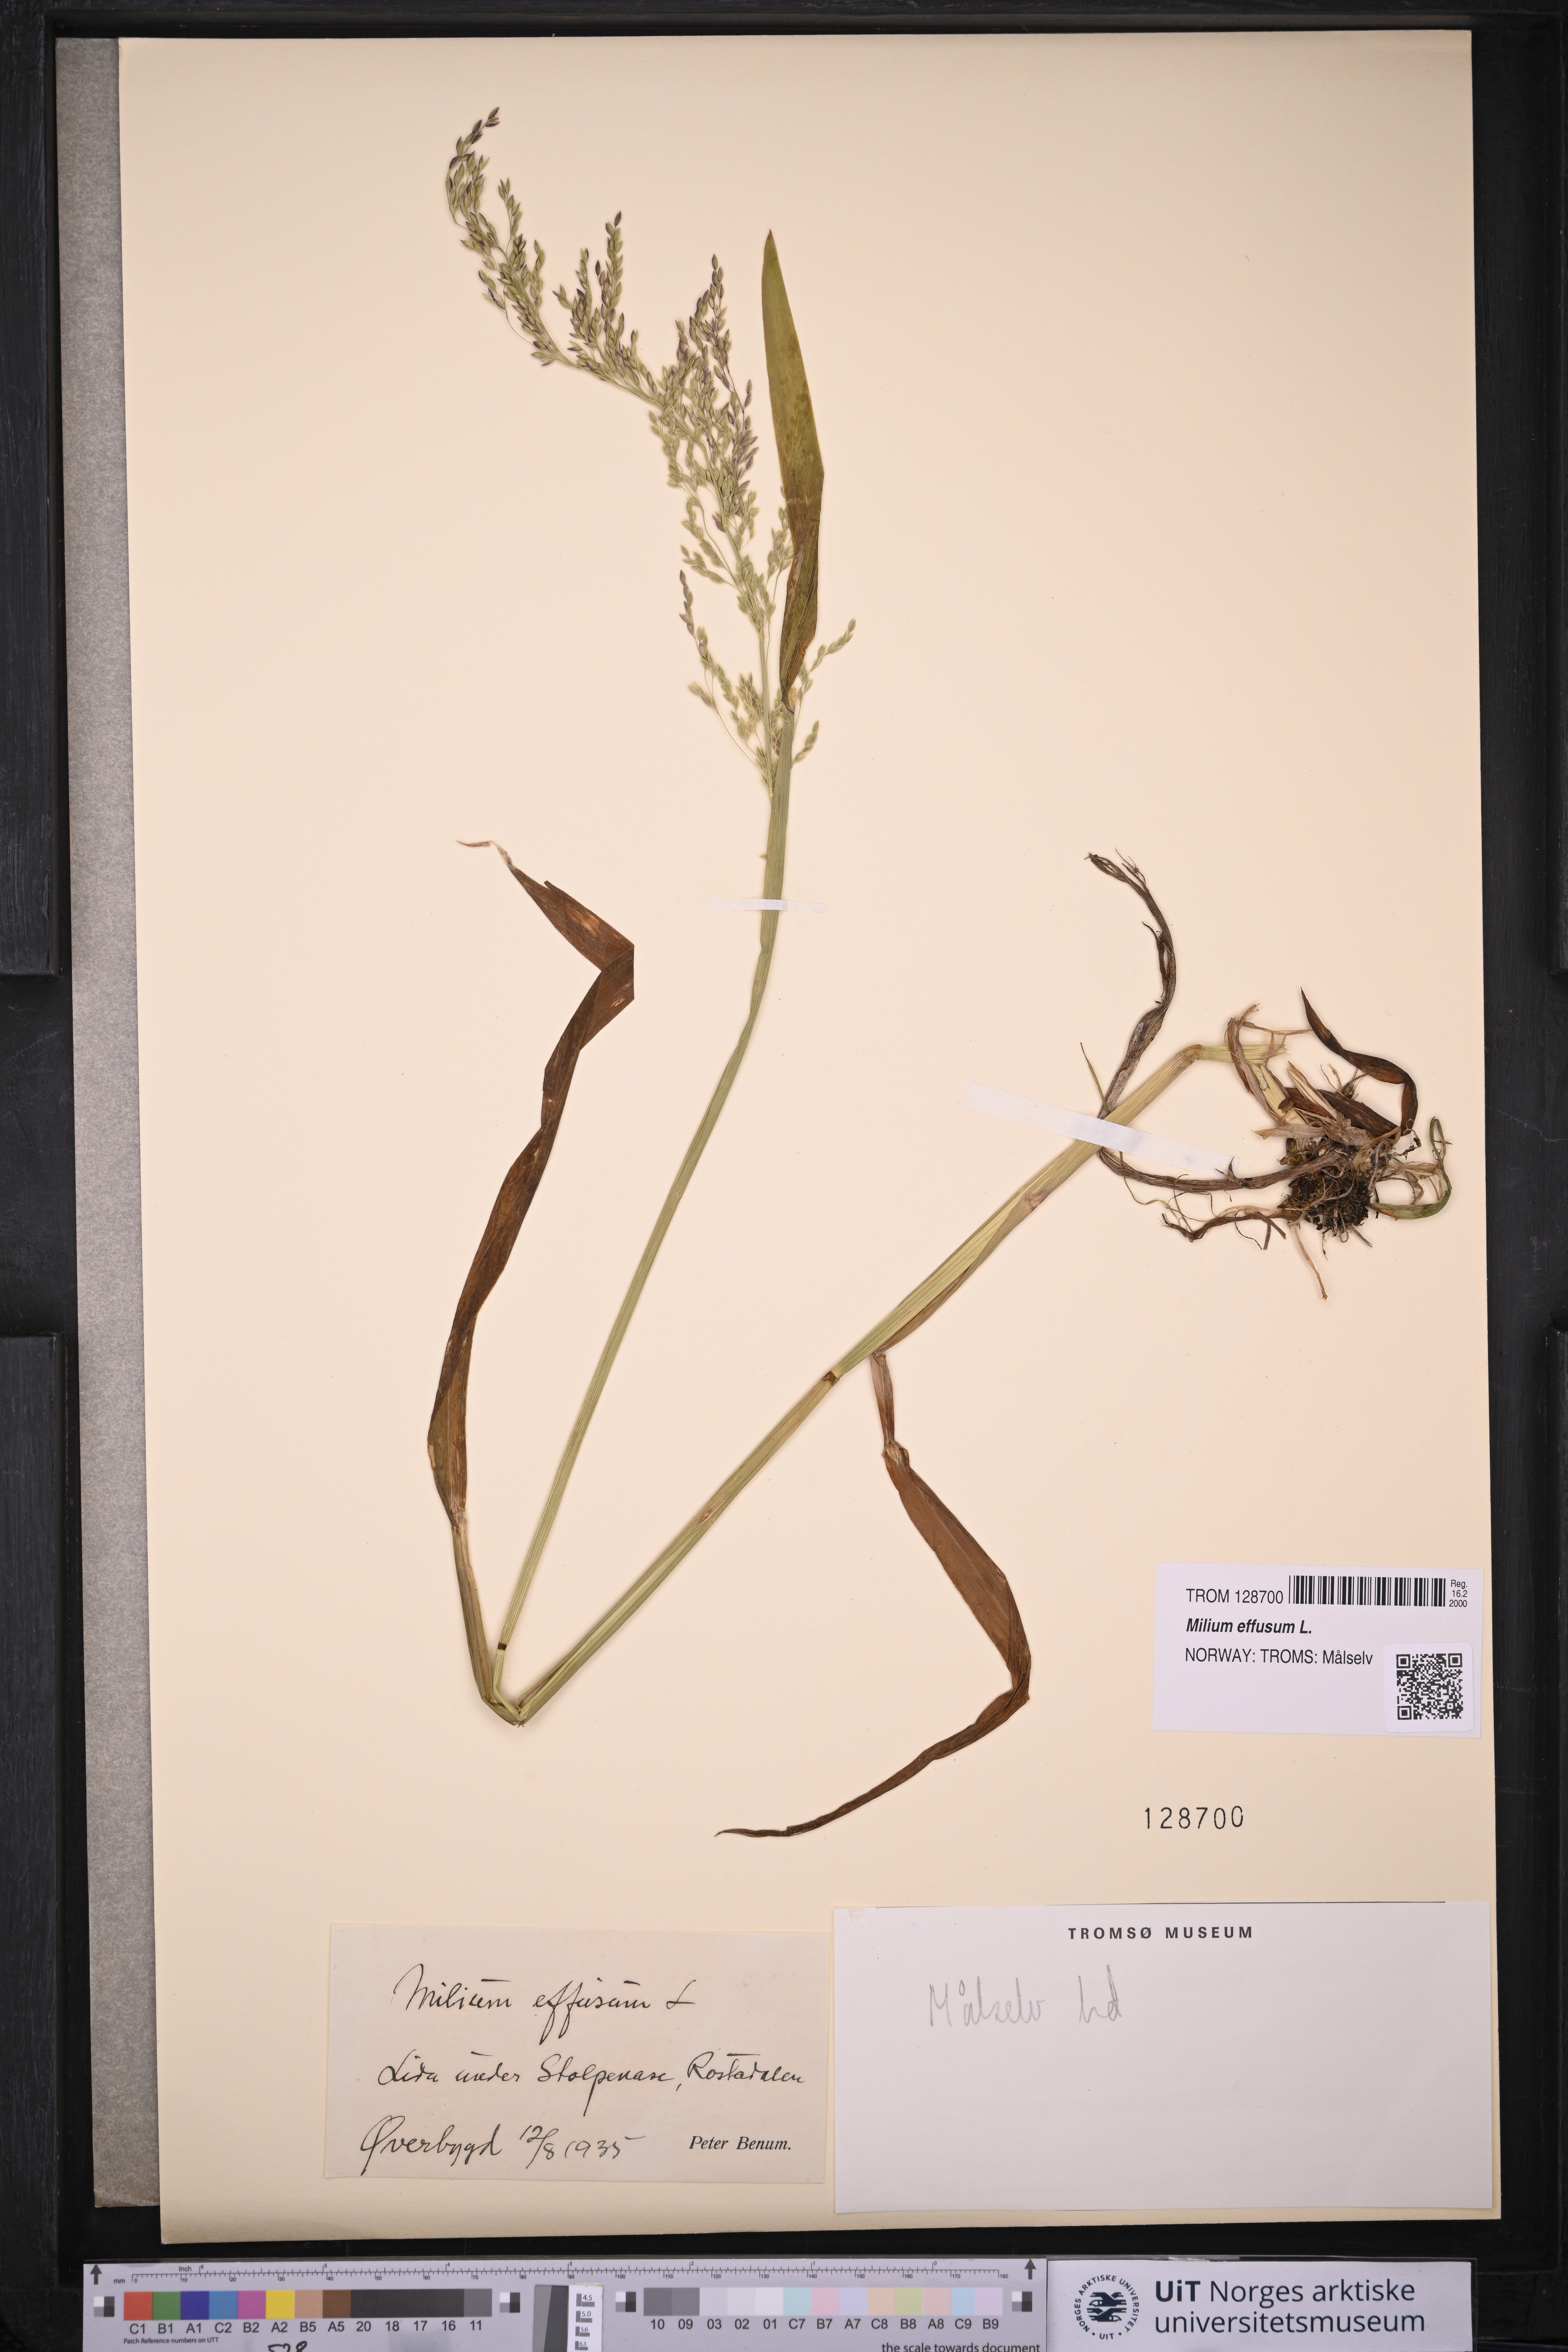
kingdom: Plantae
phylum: Tracheophyta
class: Liliopsida
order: Poales
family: Poaceae
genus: Milium
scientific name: Milium effusum
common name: Wood millet
